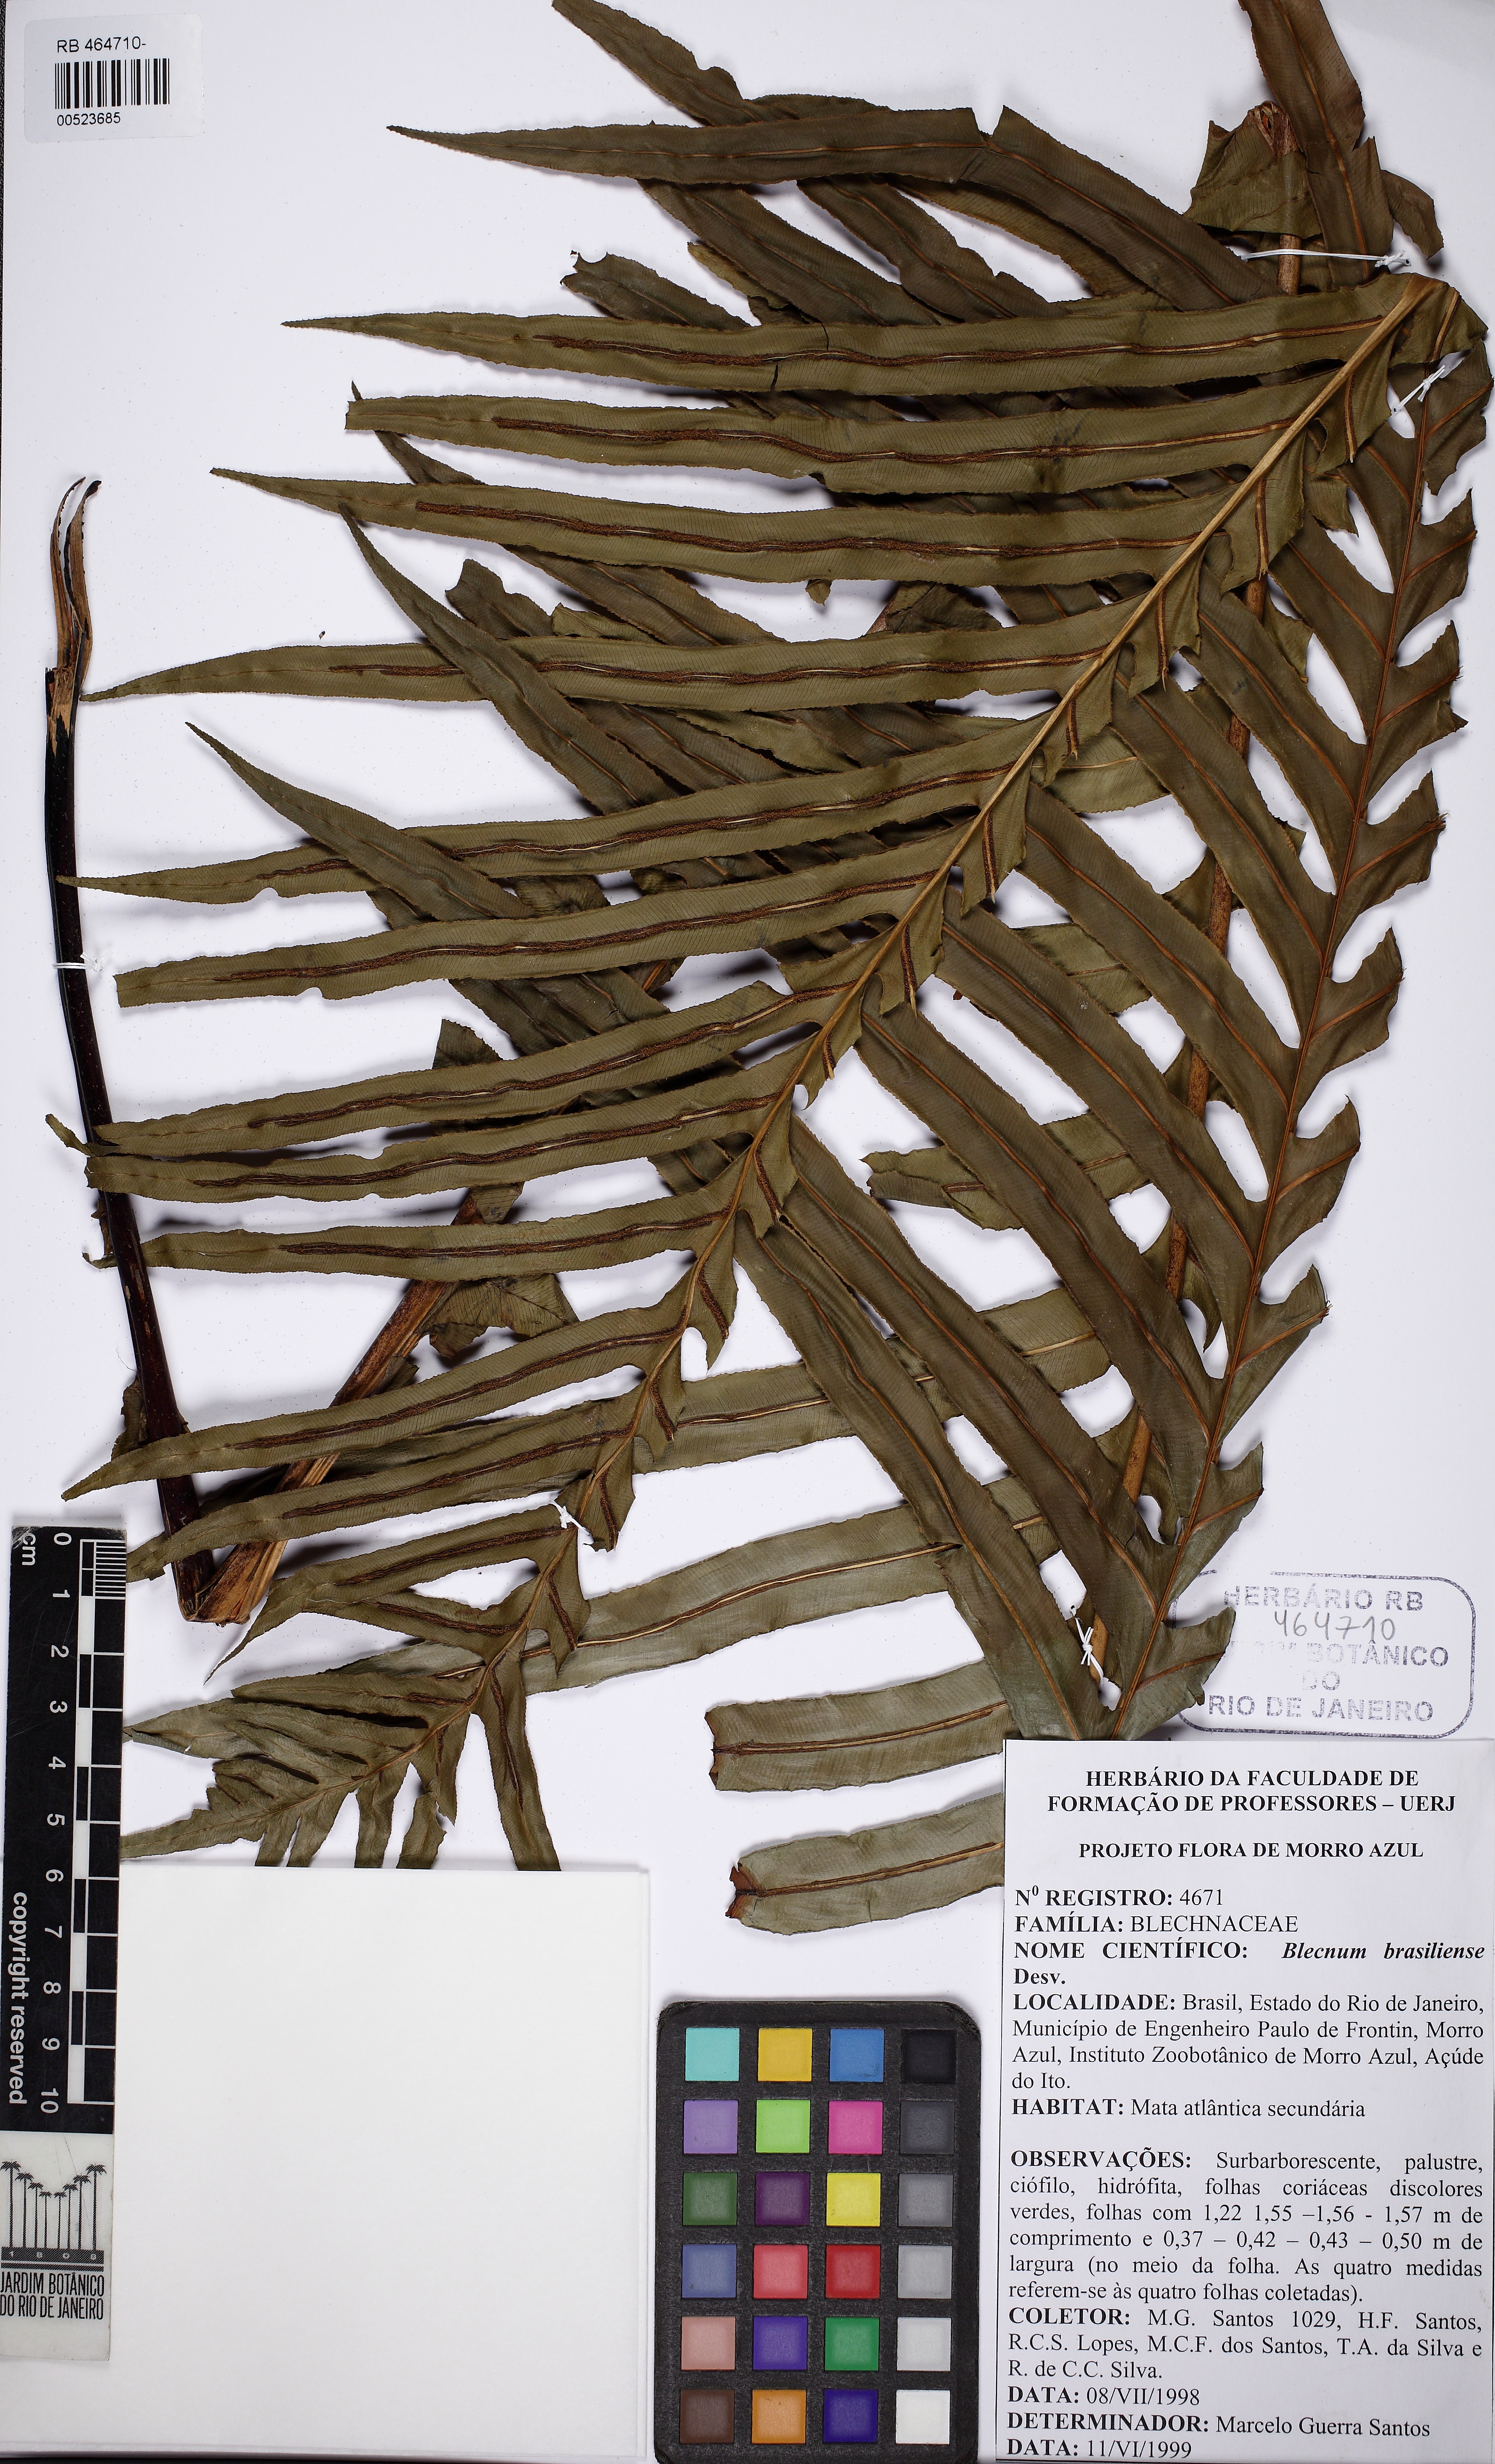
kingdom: Plantae
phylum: Tracheophyta
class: Polypodiopsida
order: Polypodiales
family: Blechnaceae
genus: Neoblechnum
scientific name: Neoblechnum brasiliense
